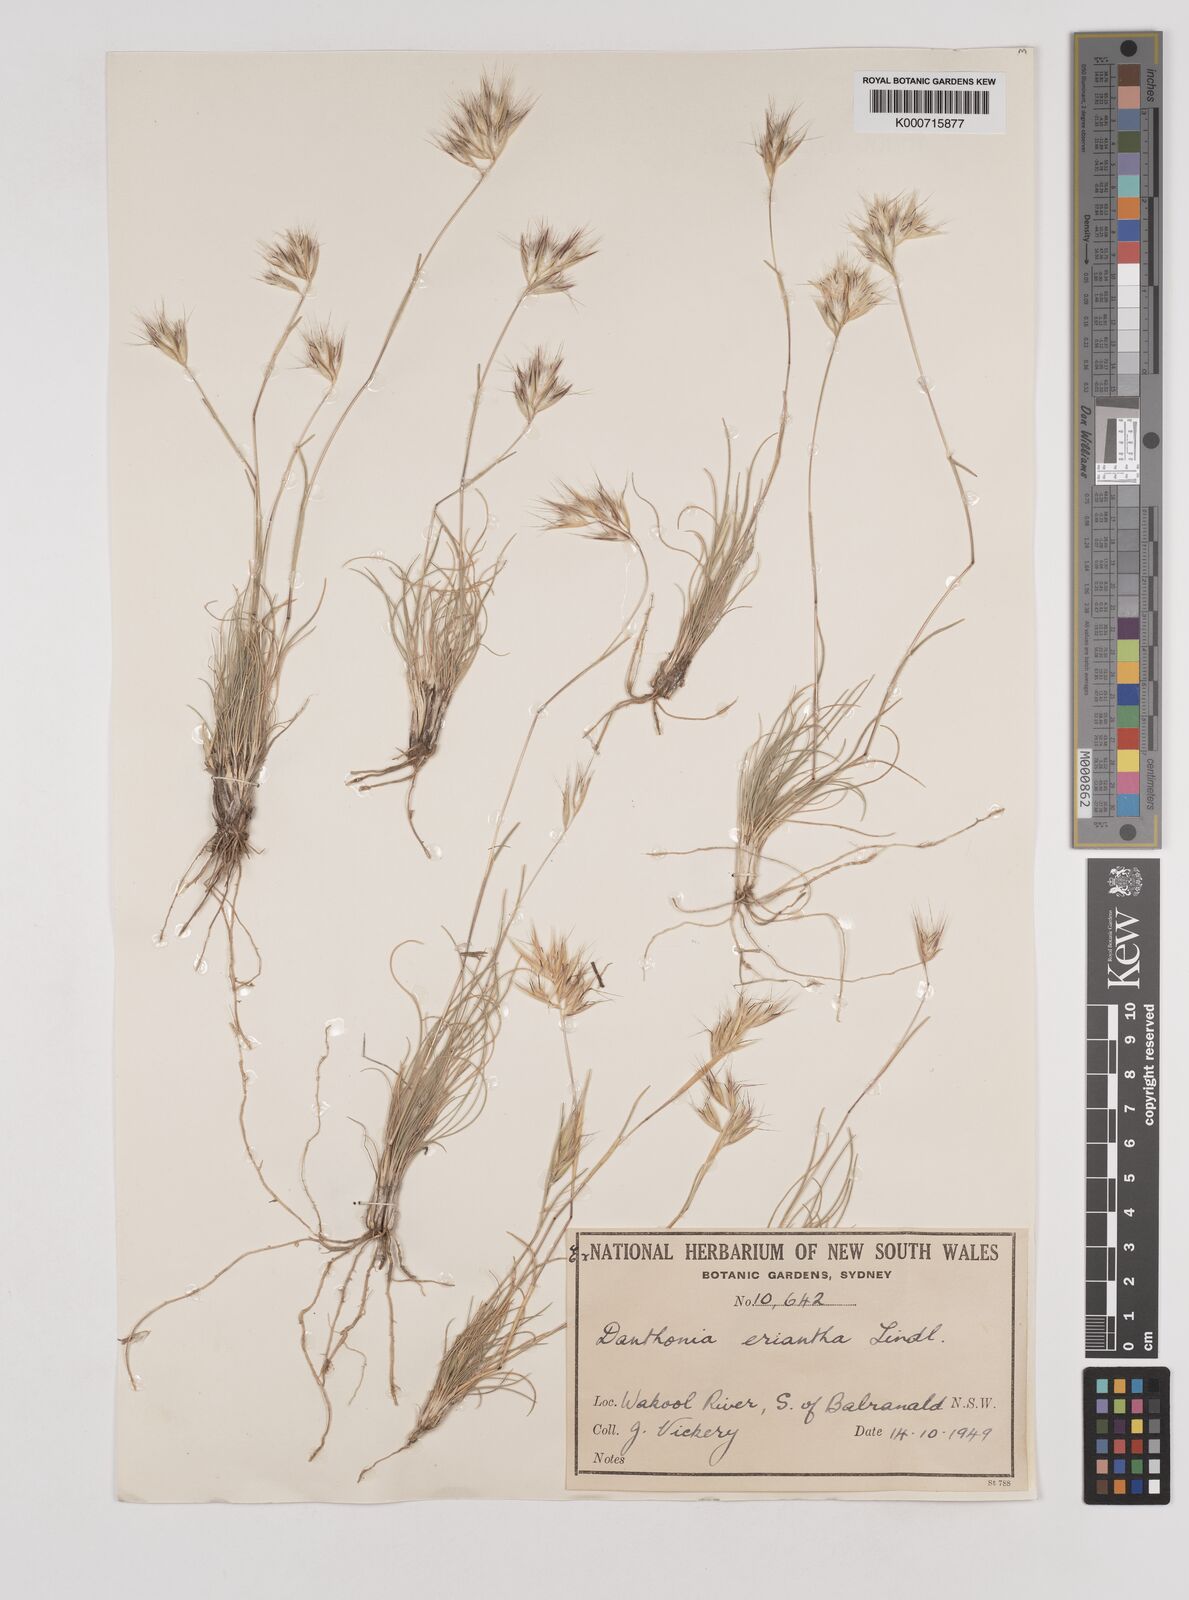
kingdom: Plantae
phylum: Tracheophyta
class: Liliopsida
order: Poales
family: Poaceae
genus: Rytidosperma
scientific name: Rytidosperma erianthum
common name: Hill wallaby grass
